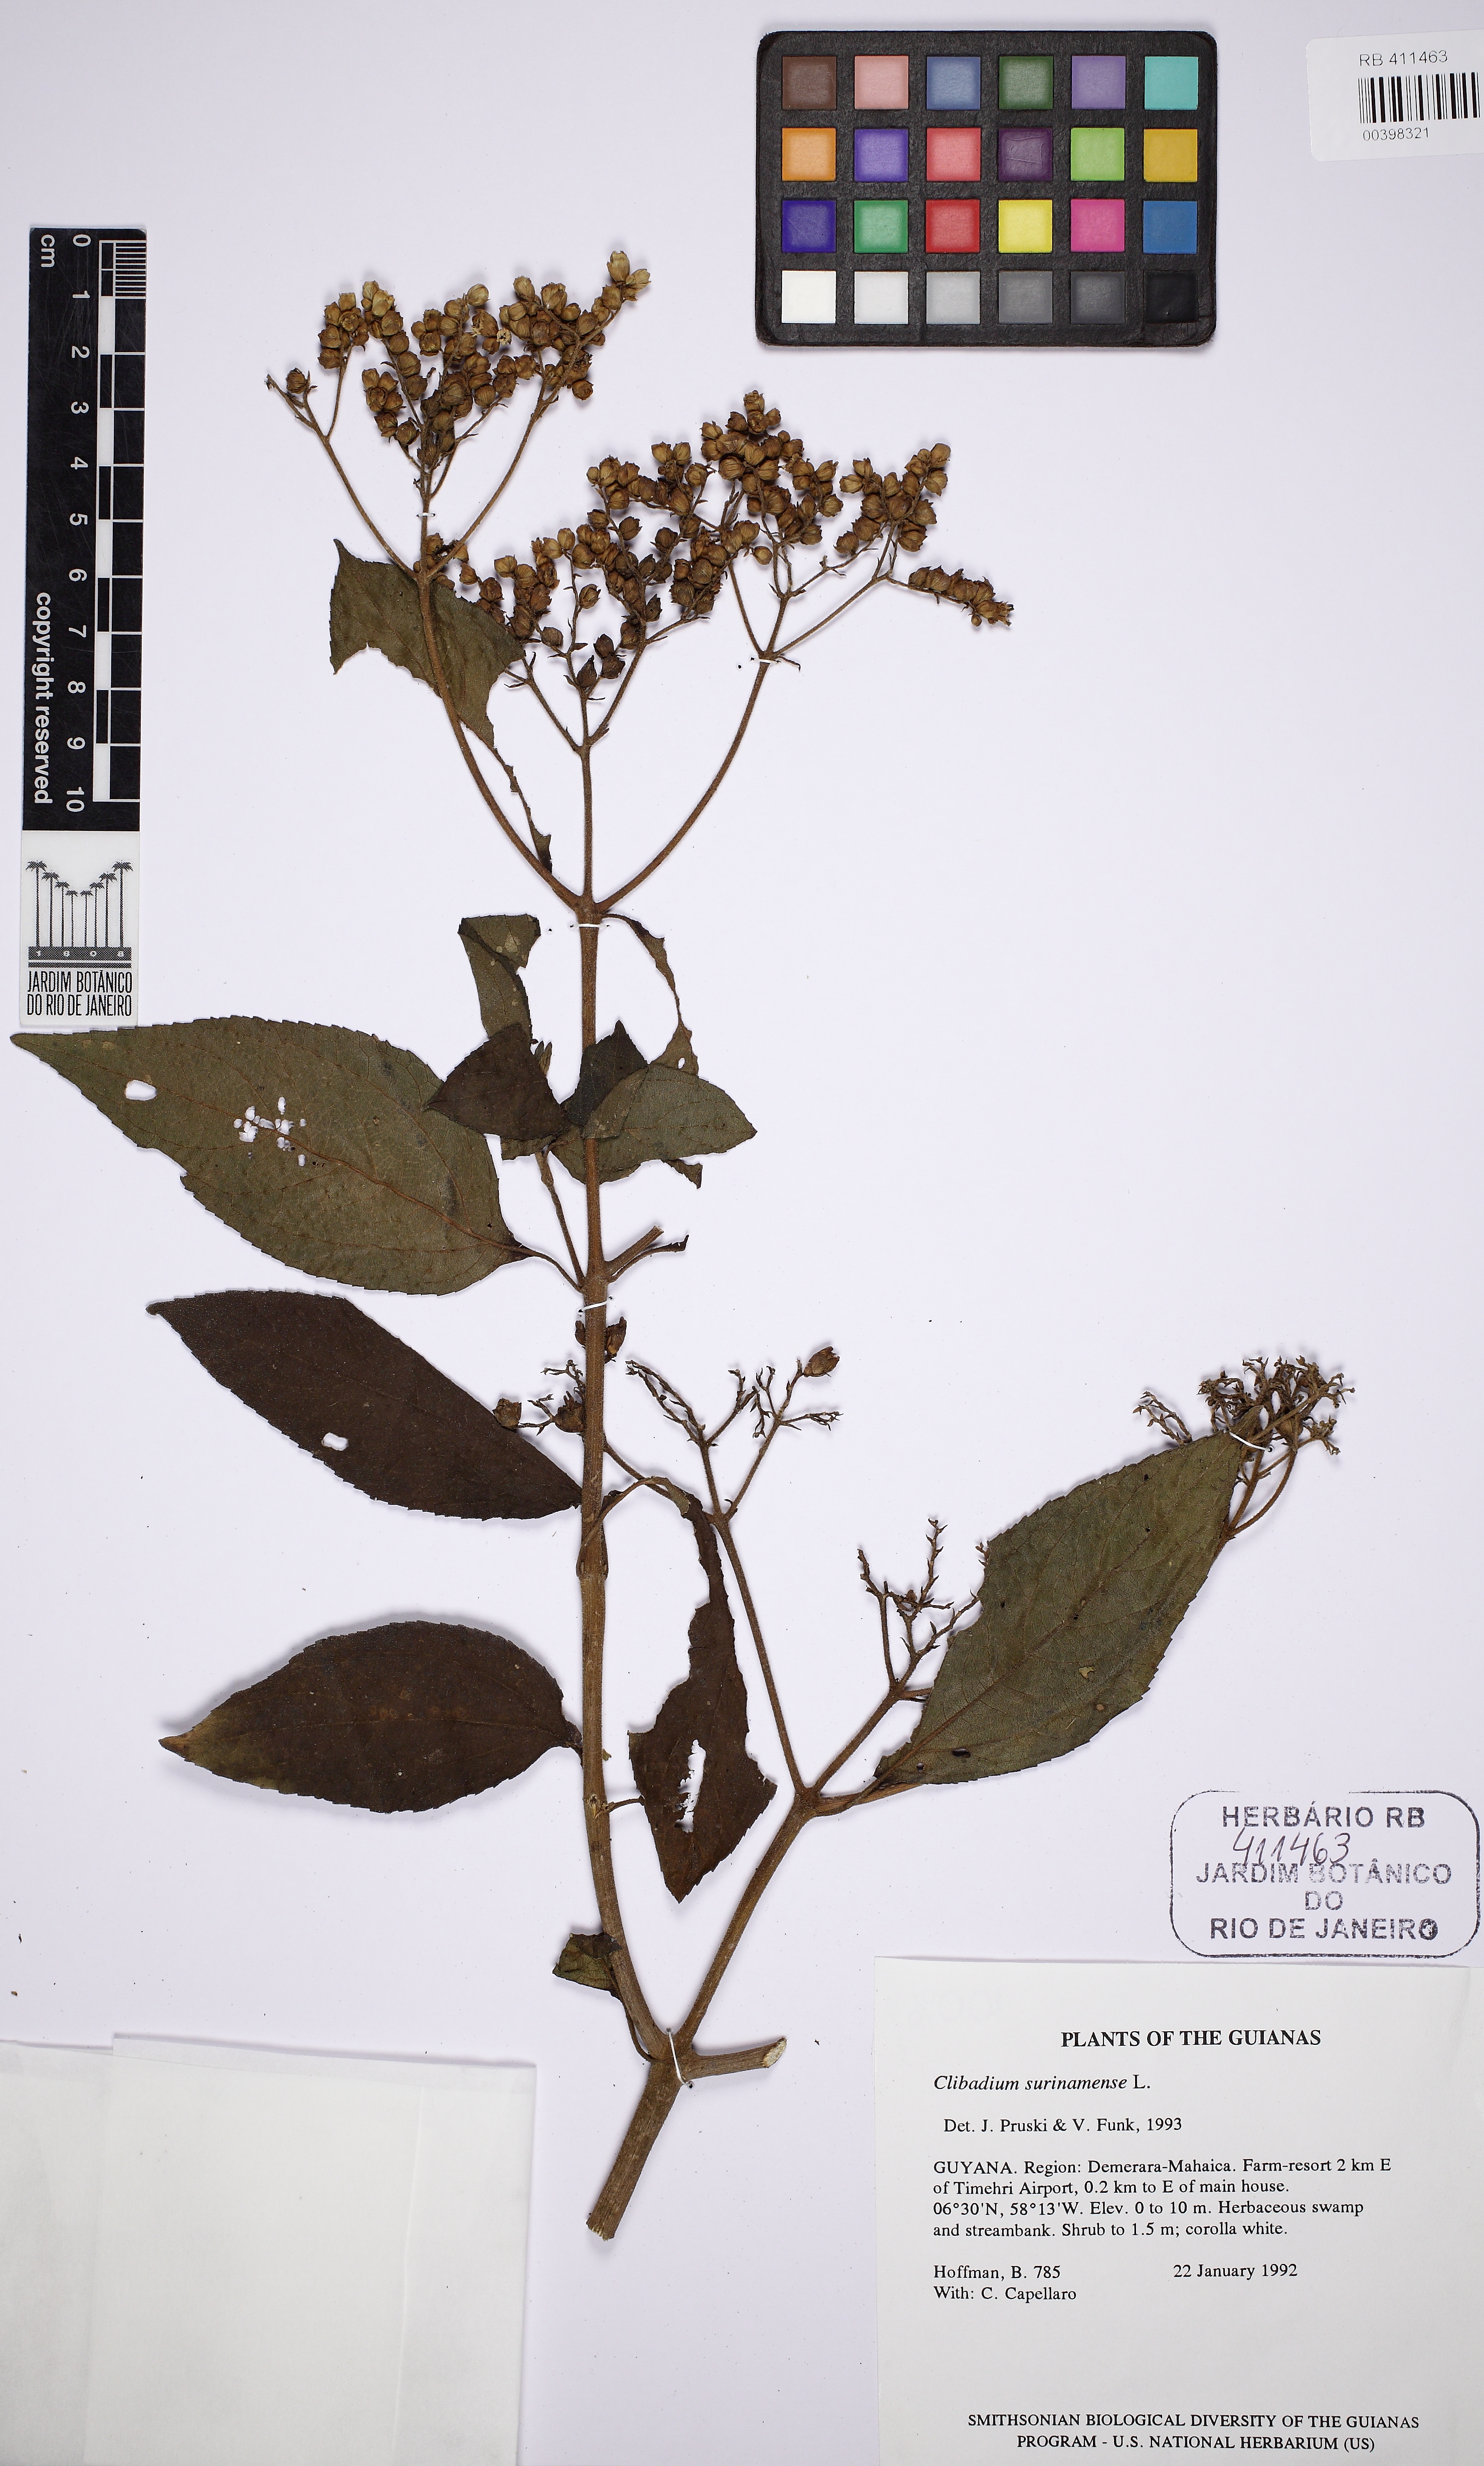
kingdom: Plantae
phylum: Tracheophyta
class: Magnoliopsida
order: Asterales
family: Asteraceae
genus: Clibadium
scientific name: Clibadium surinamense
